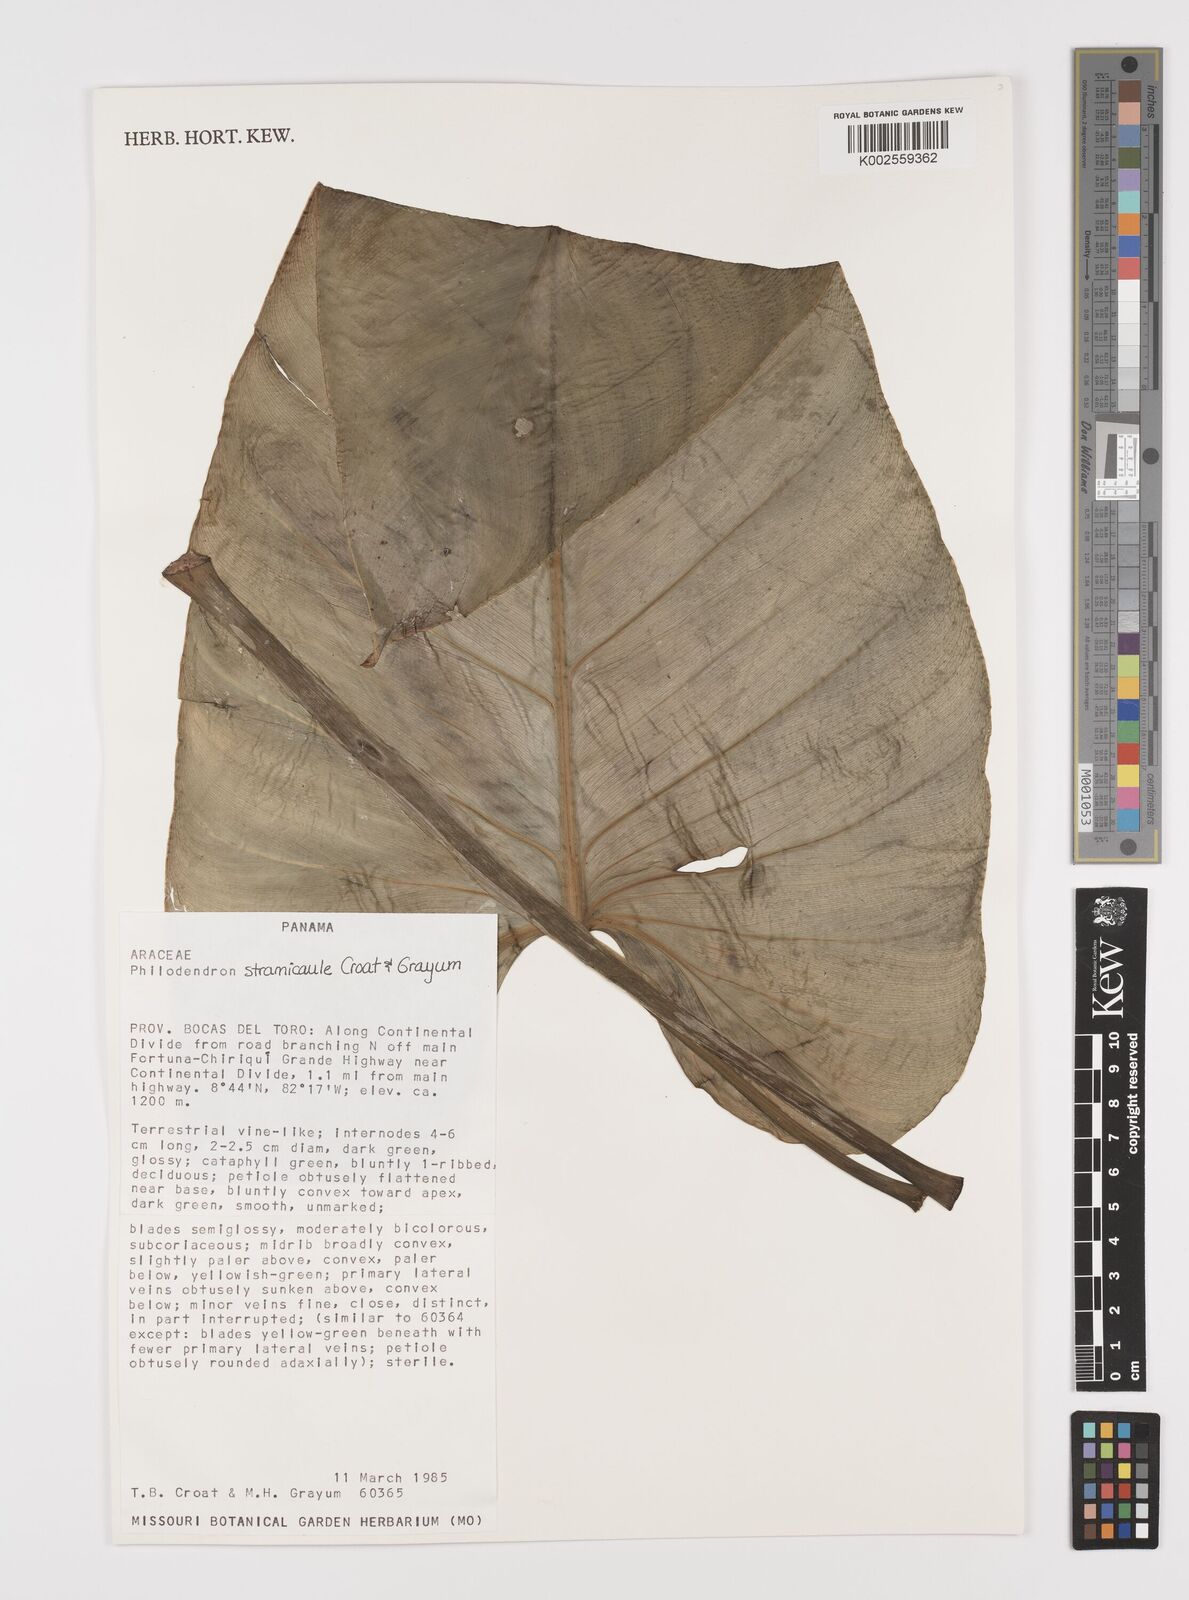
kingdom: Plantae
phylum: Tracheophyta
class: Liliopsida
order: Alismatales
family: Araceae
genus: Philodendron
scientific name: Philodendron straminicaule
